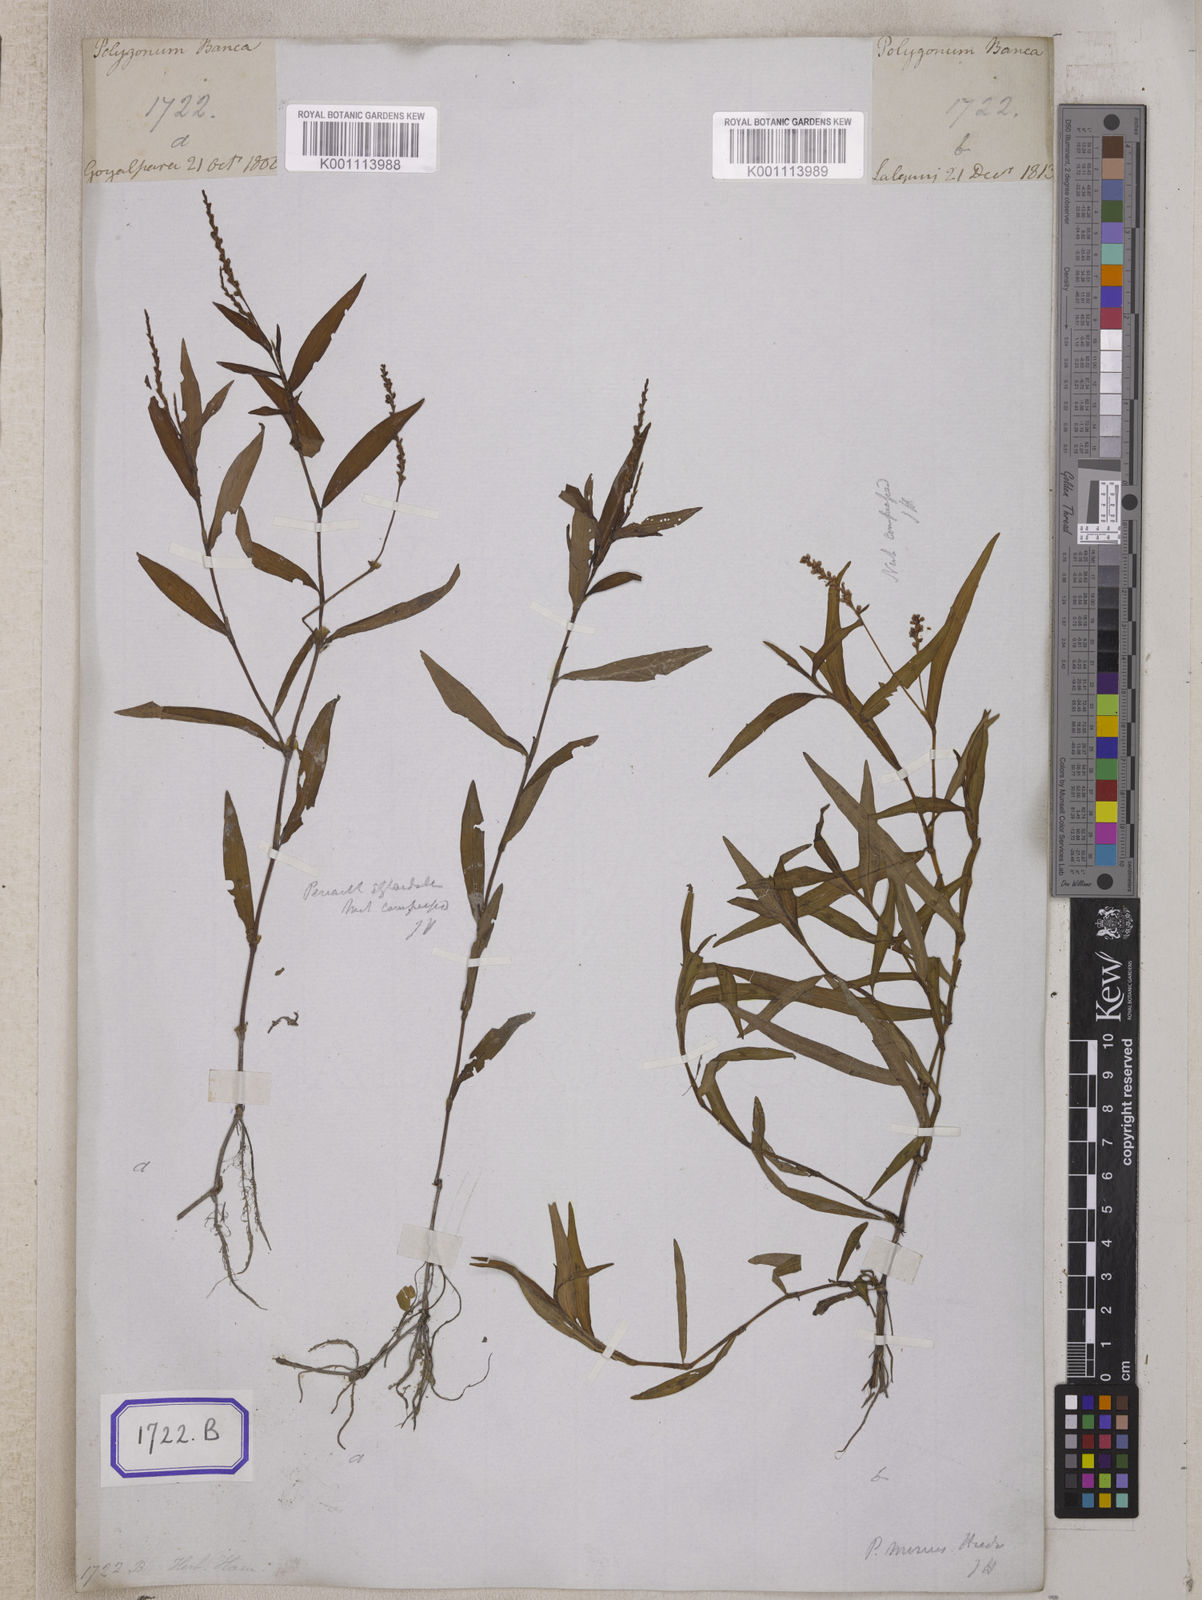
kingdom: Plantae
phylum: Tracheophyta
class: Magnoliopsida
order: Caryophyllales
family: Polygonaceae
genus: Polygonum
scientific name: Polygonum
